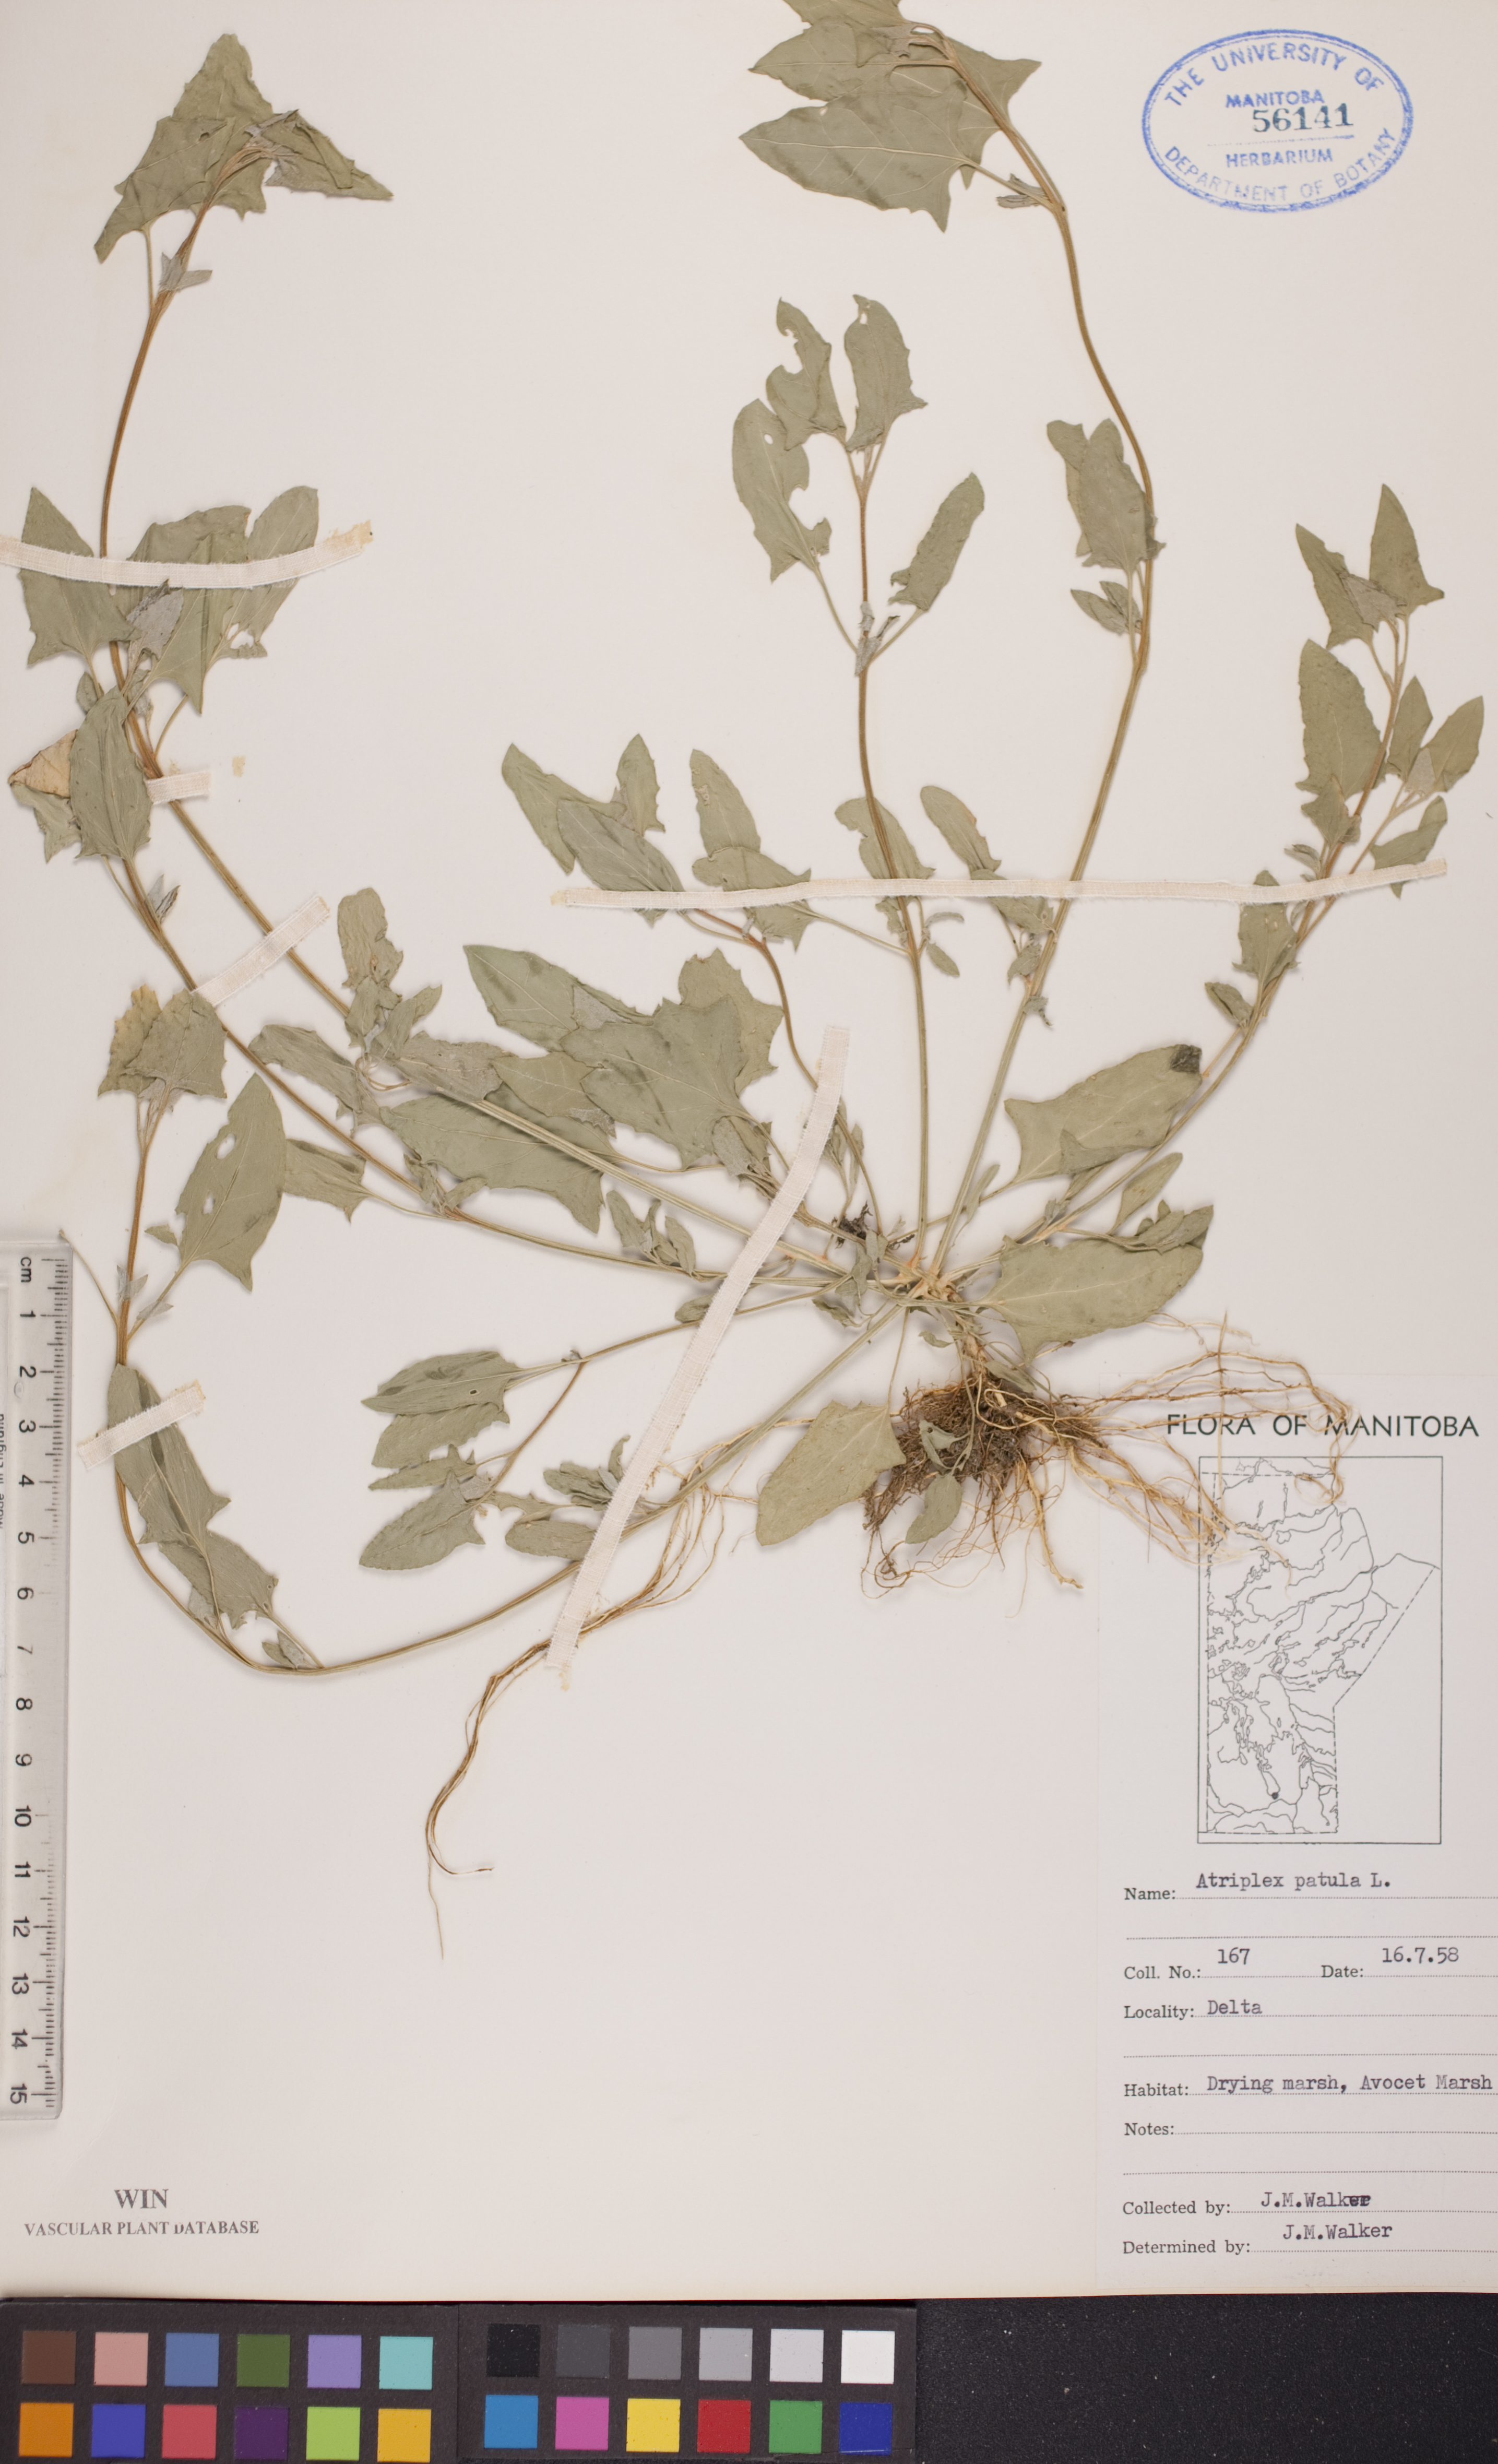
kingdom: Plantae
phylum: Tracheophyta
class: Magnoliopsida
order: Caryophyllales
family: Amaranthaceae
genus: Atriplex
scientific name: Atriplex patula
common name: Common orache
